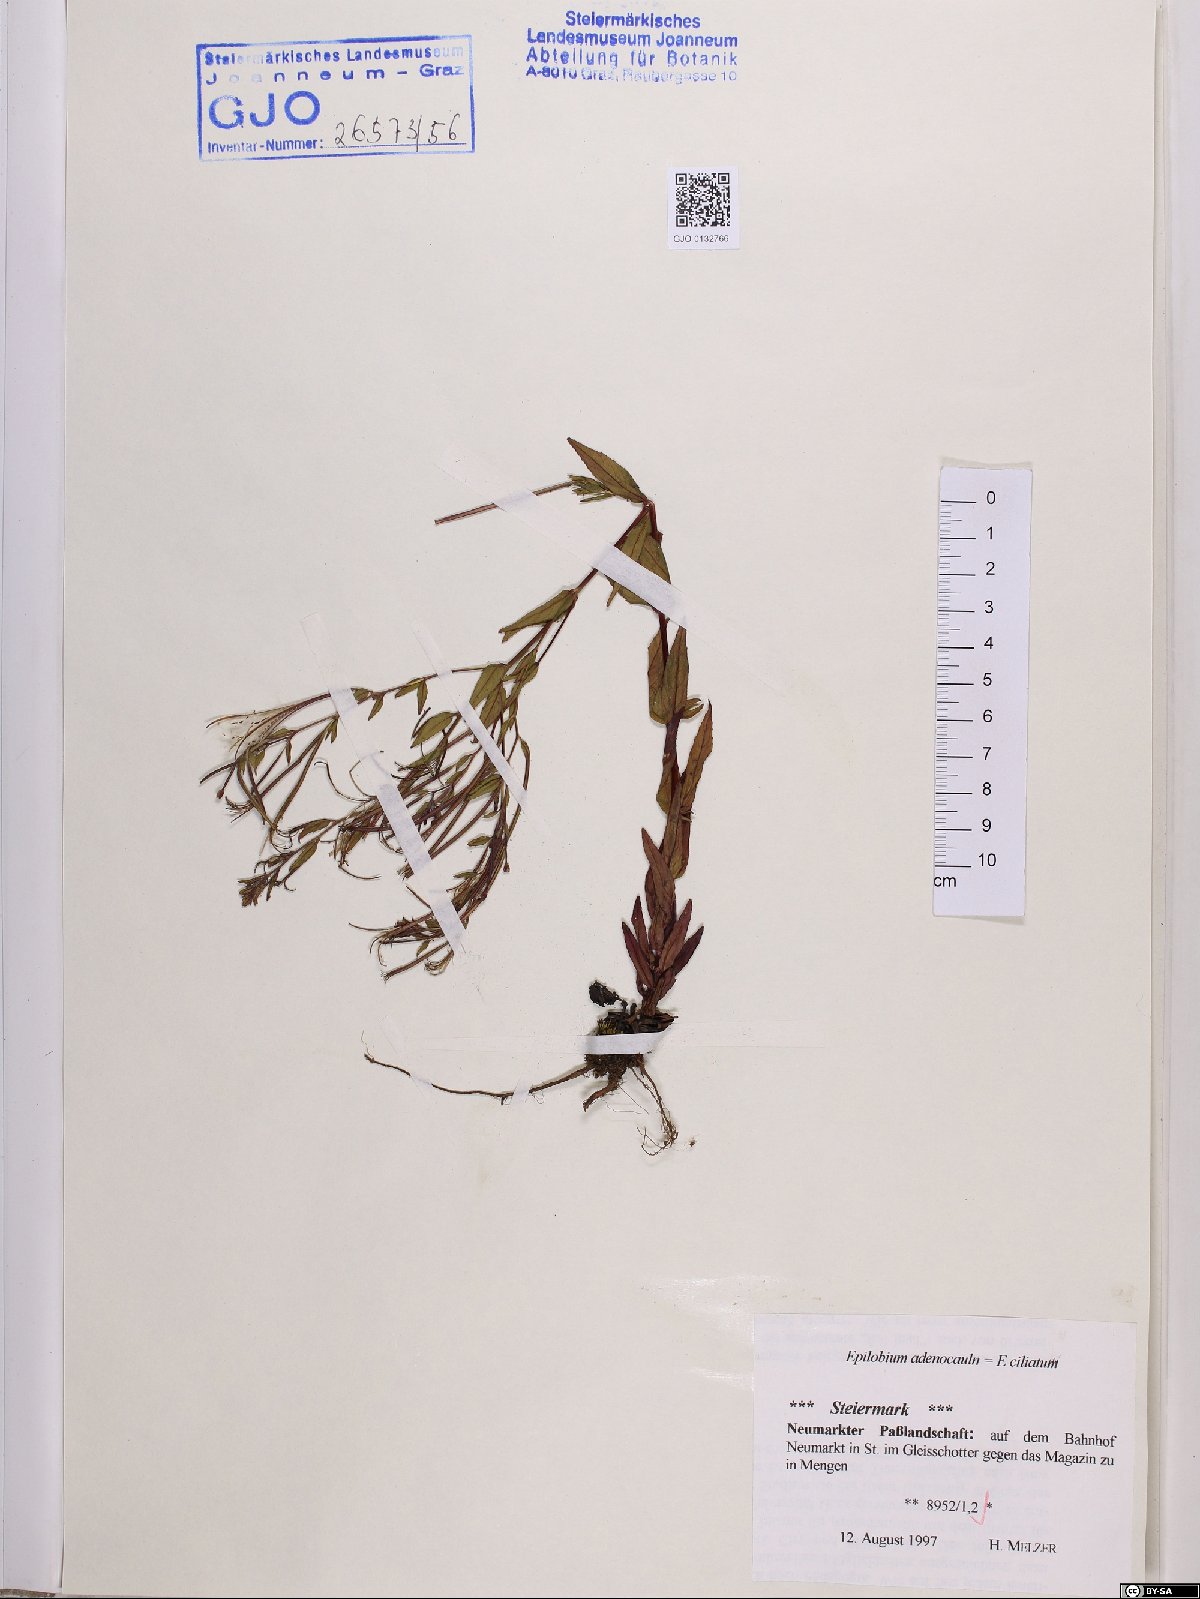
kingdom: Plantae
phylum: Tracheophyta
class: Magnoliopsida
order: Myrtales
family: Onagraceae
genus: Epilobium
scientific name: Epilobium ciliatum
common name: American willowherb
